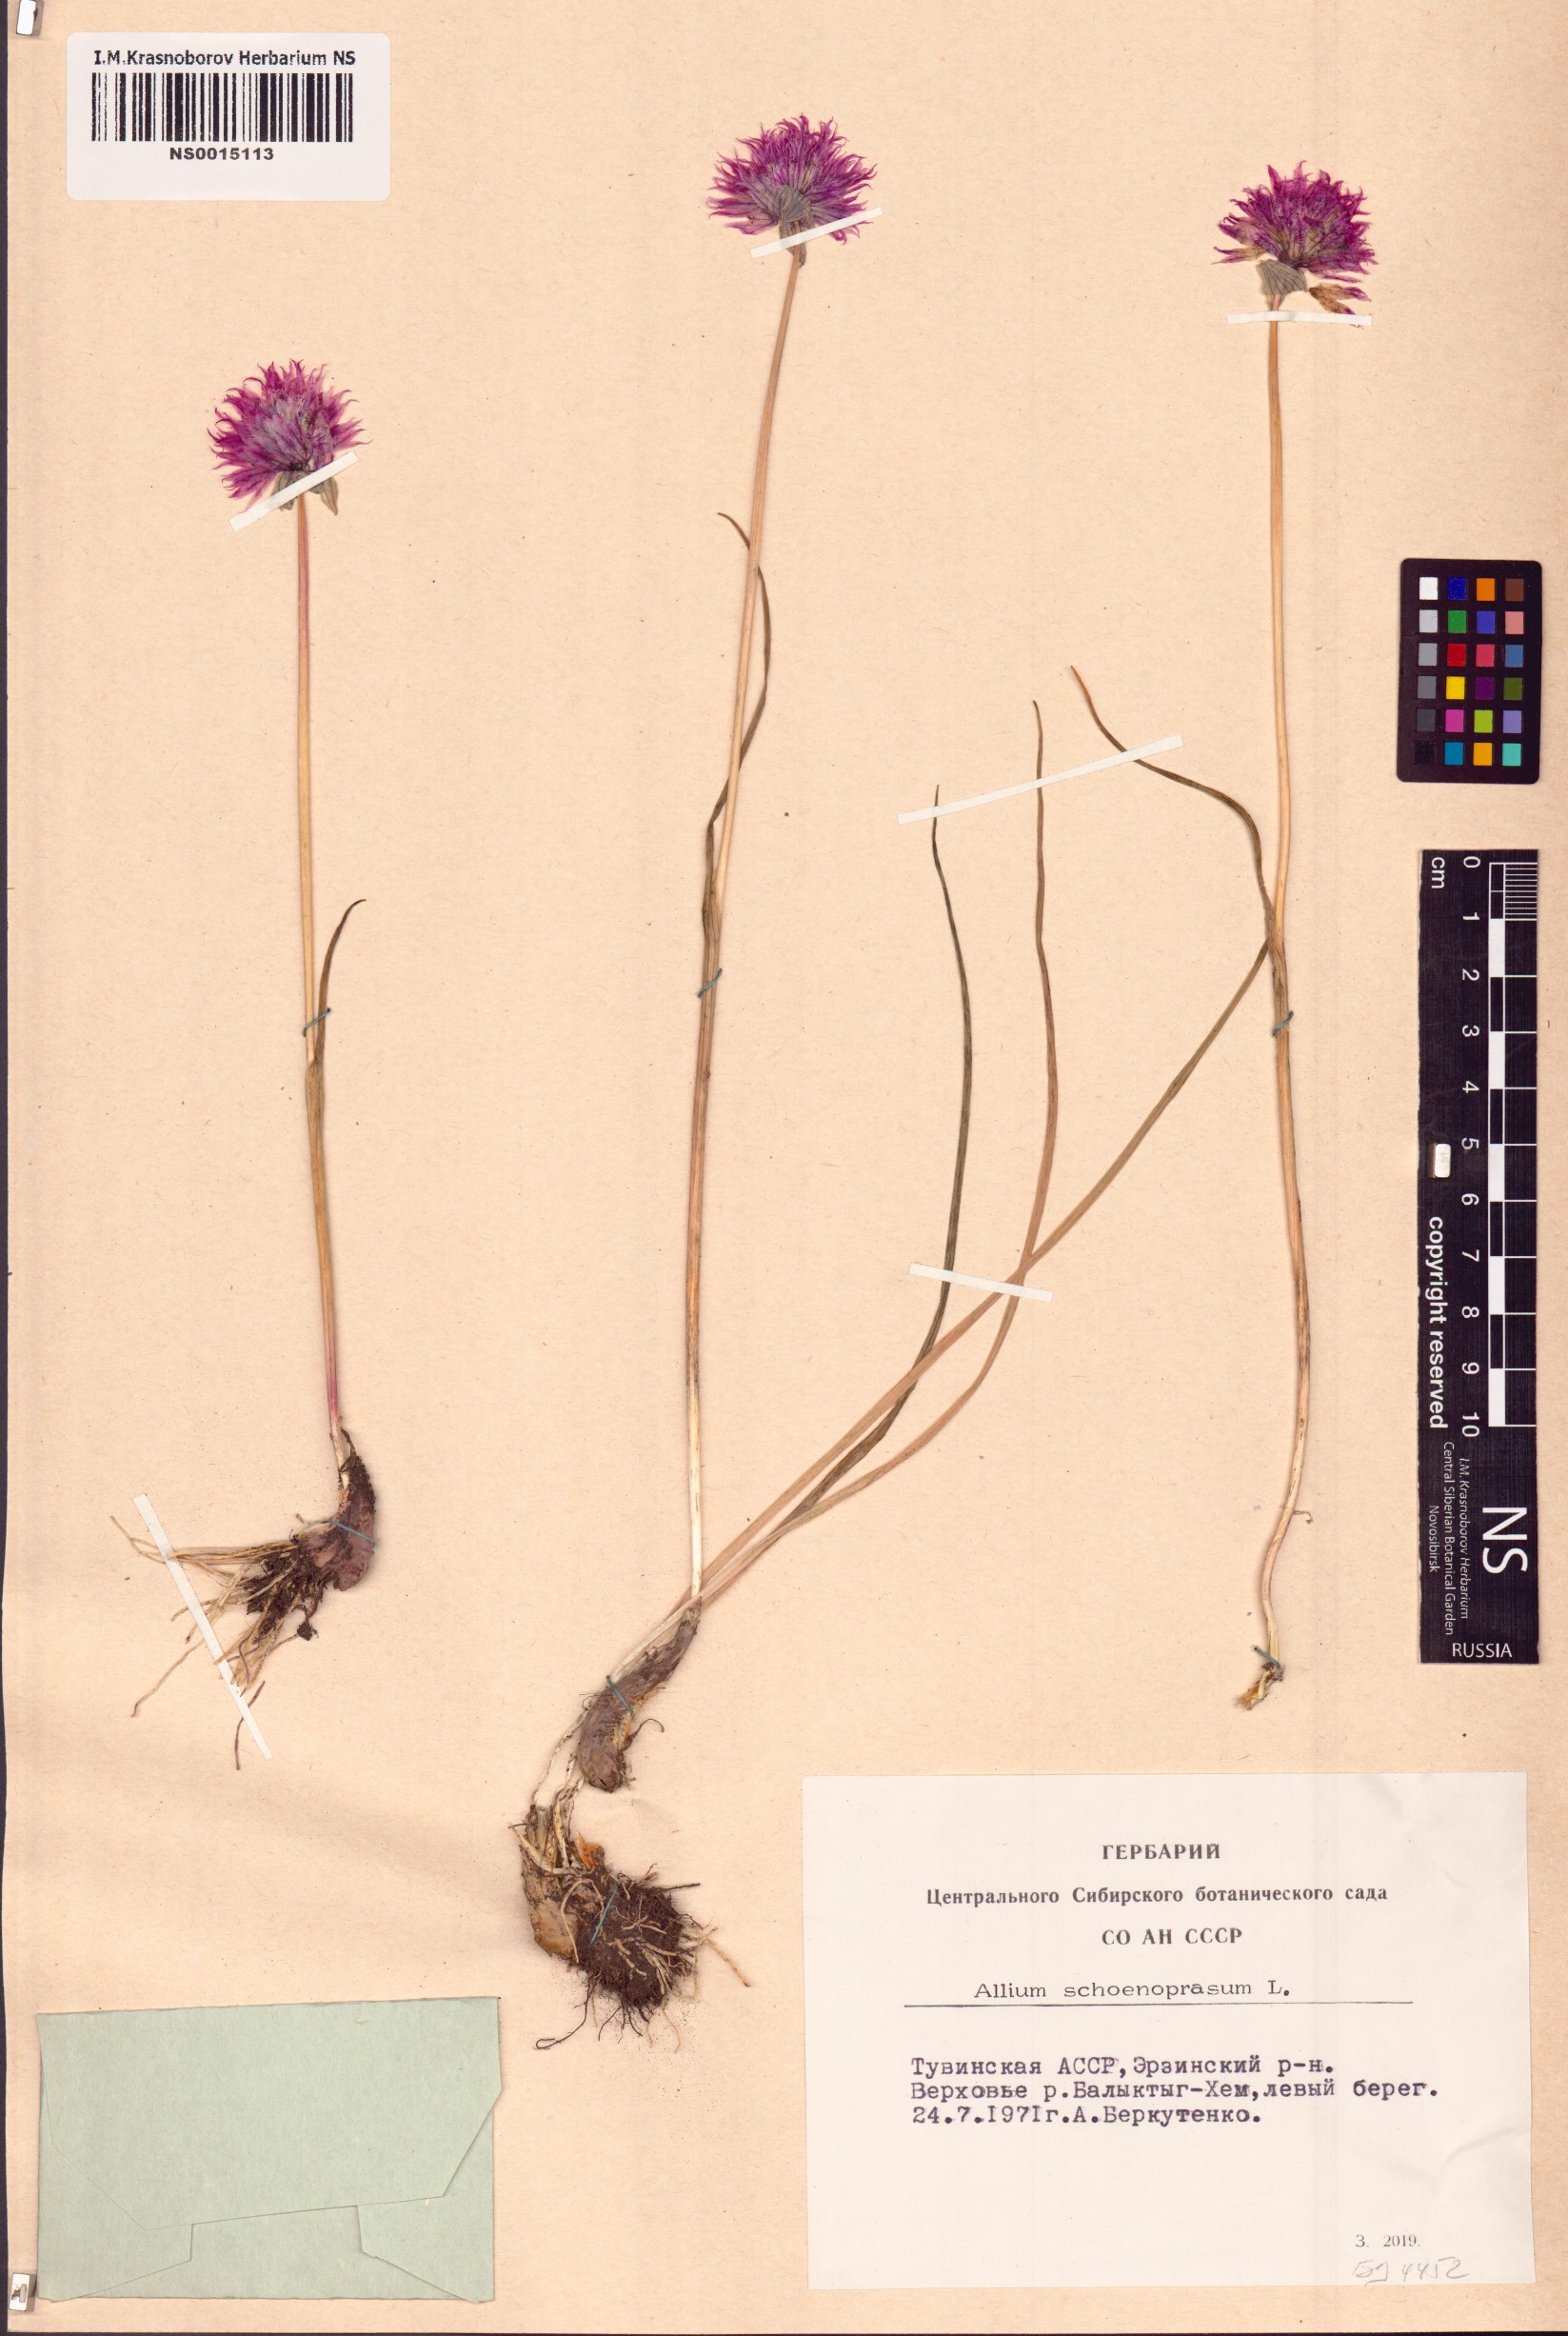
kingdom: Plantae
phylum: Tracheophyta
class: Liliopsida
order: Asparagales
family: Amaryllidaceae
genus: Allium
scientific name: Allium schoenoprasum
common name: Chives
